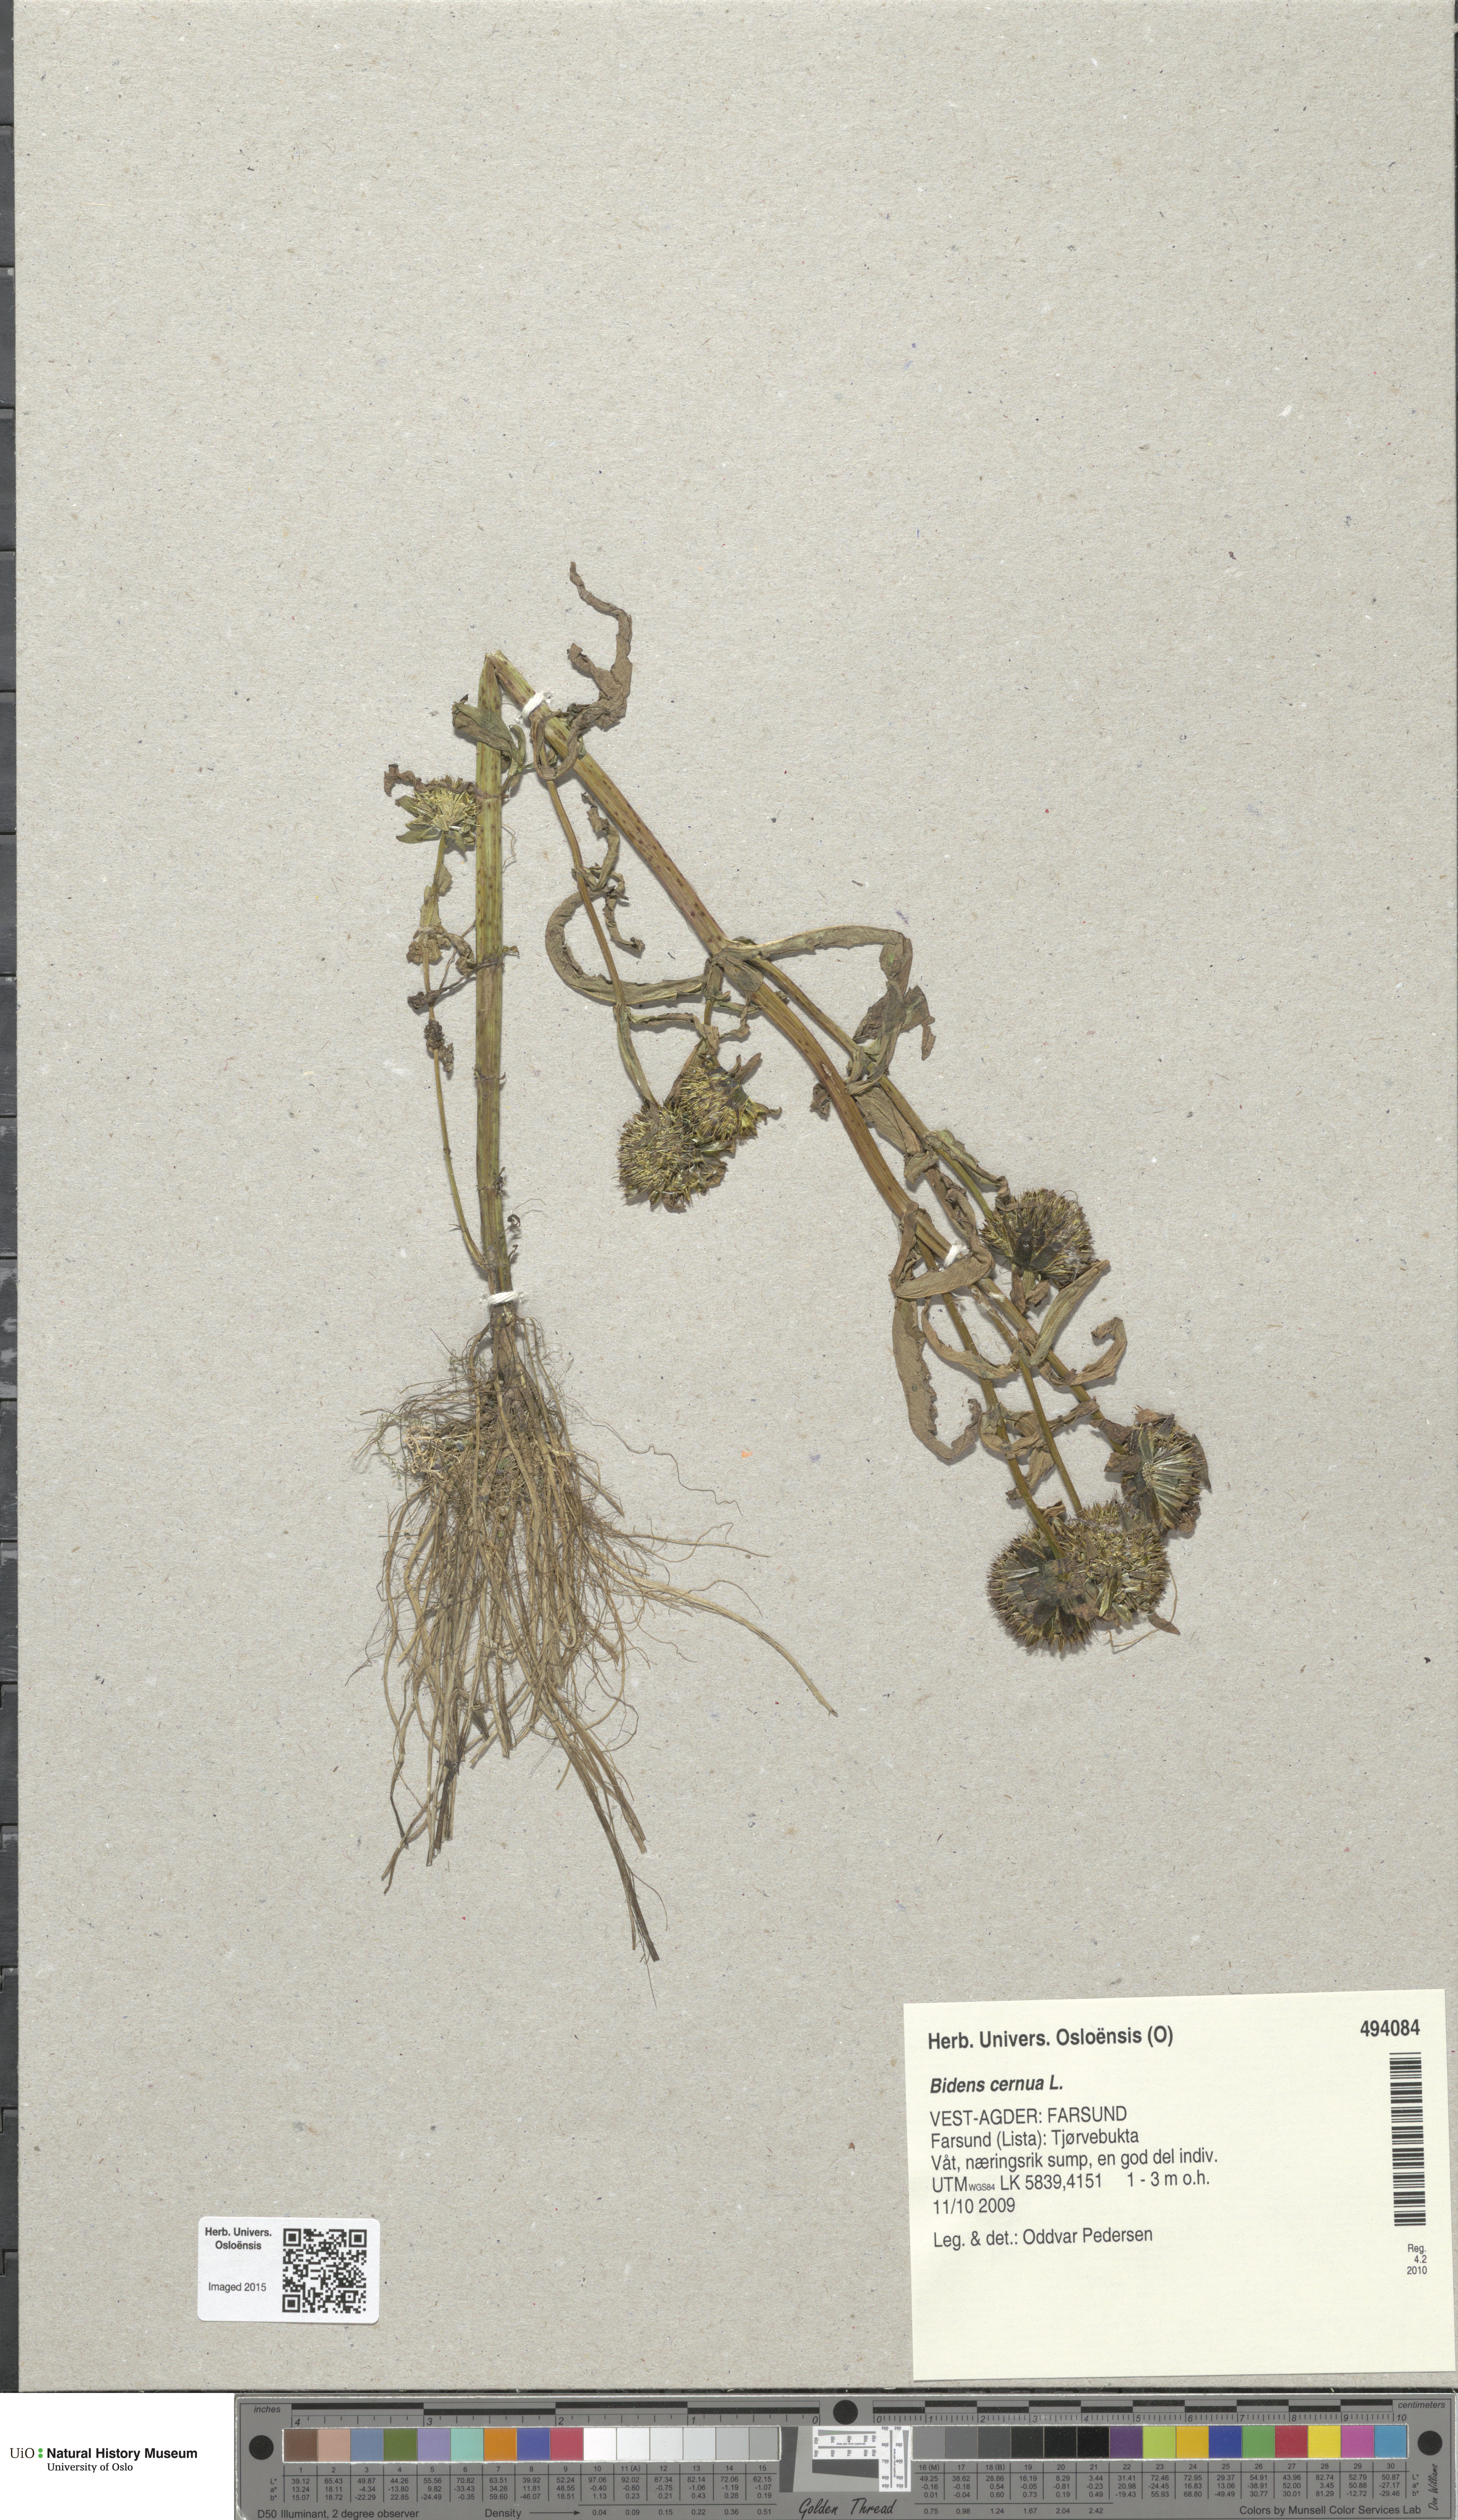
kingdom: Plantae
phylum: Tracheophyta
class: Magnoliopsida
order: Asterales
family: Asteraceae
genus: Bidens
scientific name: Bidens cernua
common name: Nodding bur-marigold
